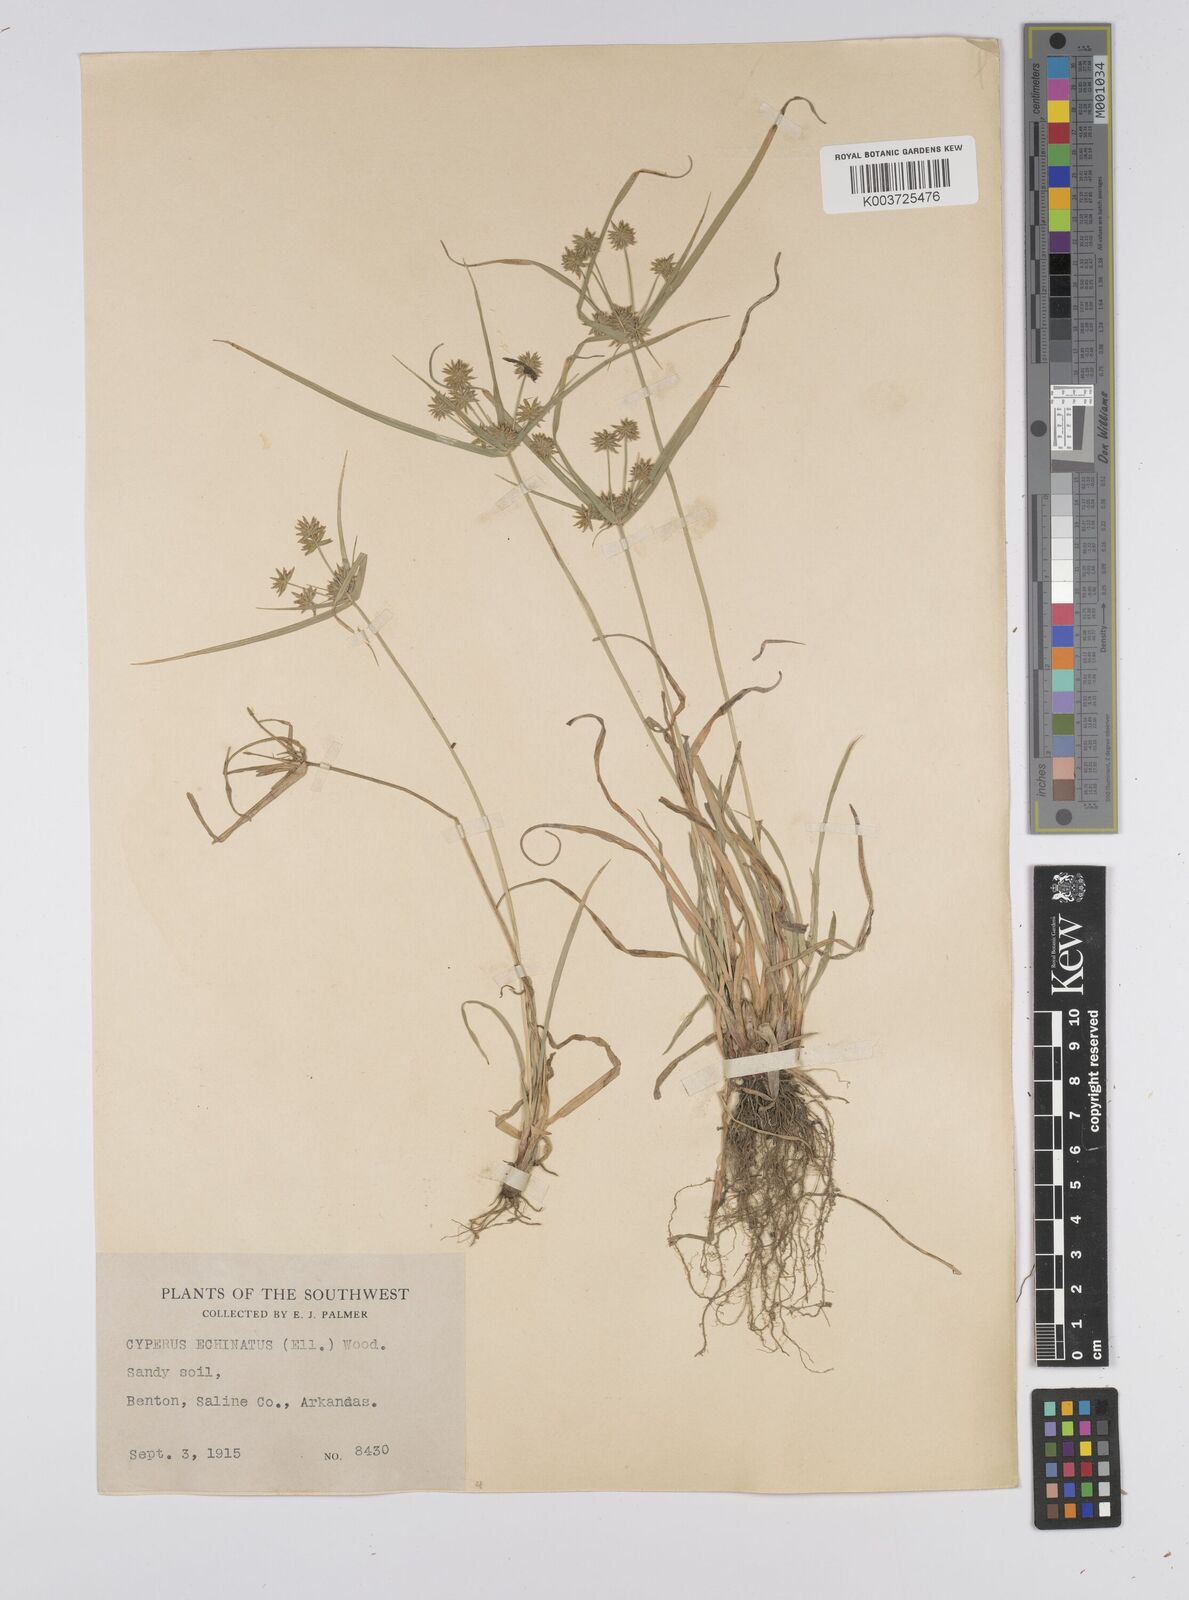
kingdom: Plantae
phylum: Tracheophyta
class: Liliopsida
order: Poales
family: Cyperaceae
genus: Cyperus
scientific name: Cyperus luzulae
